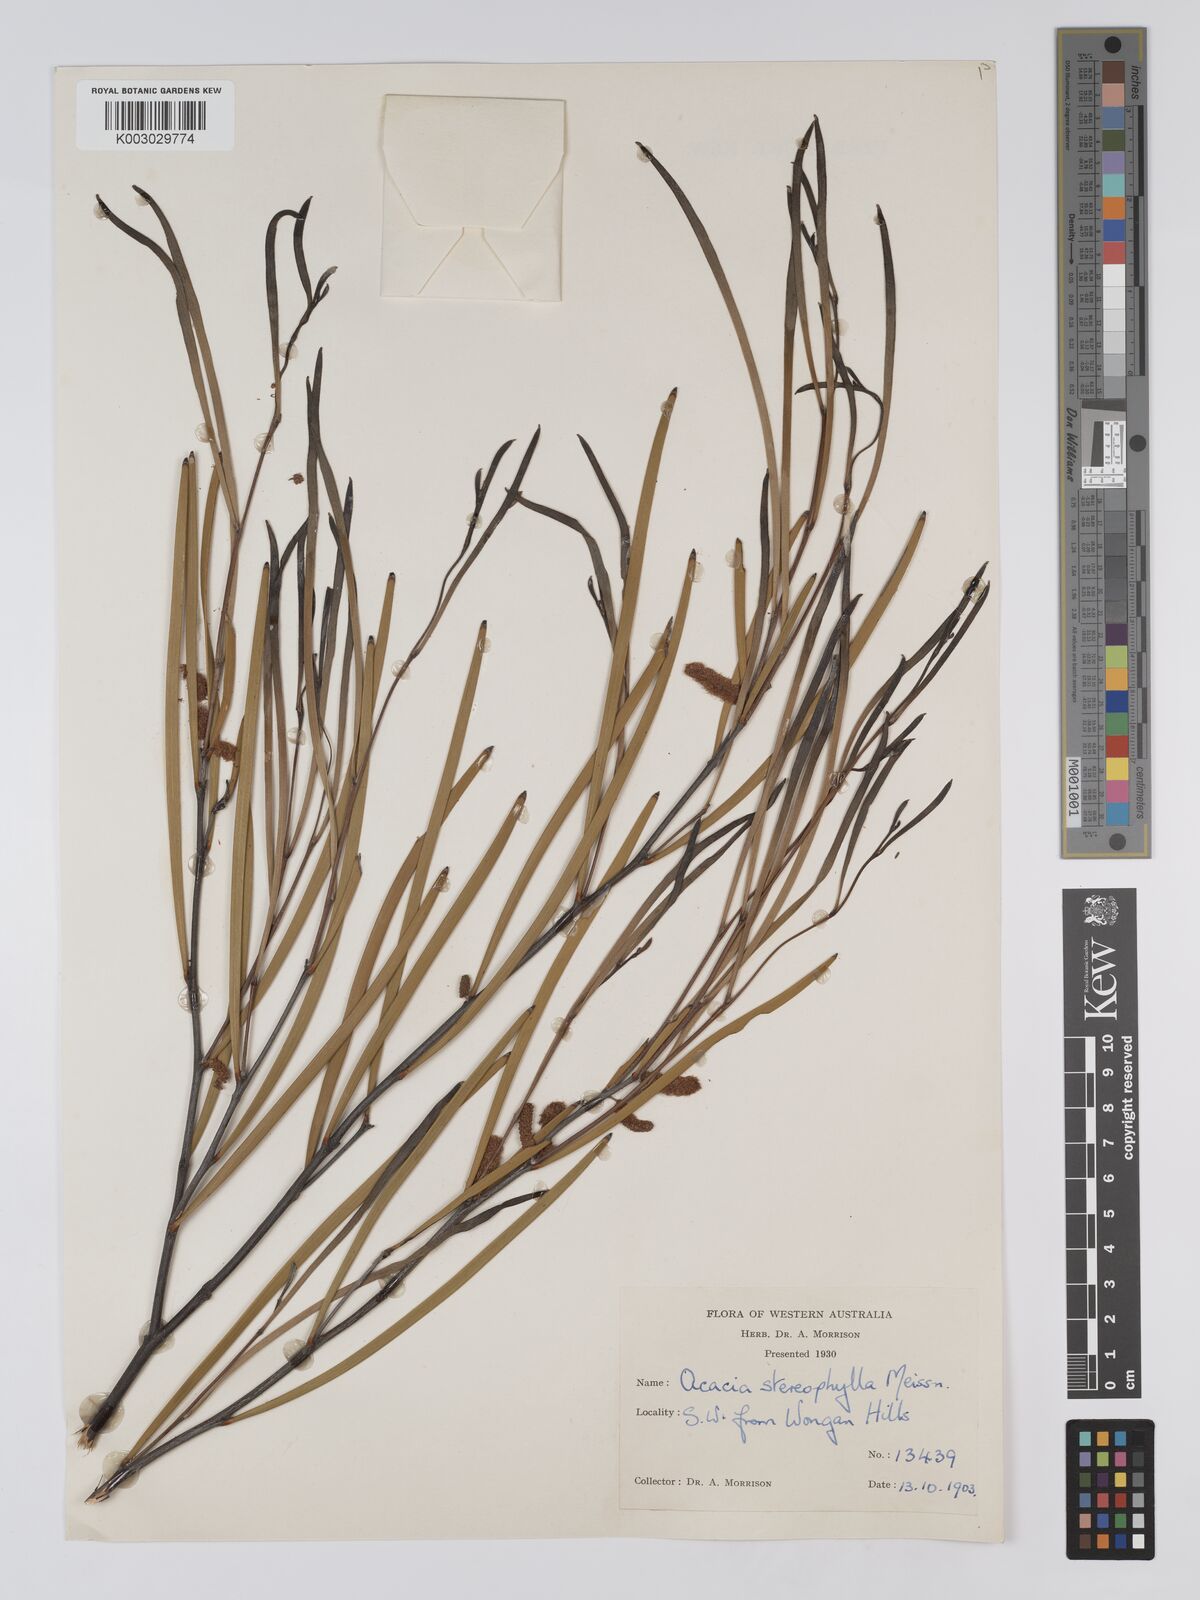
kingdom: Plantae
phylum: Tracheophyta
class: Magnoliopsida
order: Fabales
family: Fabaceae
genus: Acacia
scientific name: Acacia stereophylla
